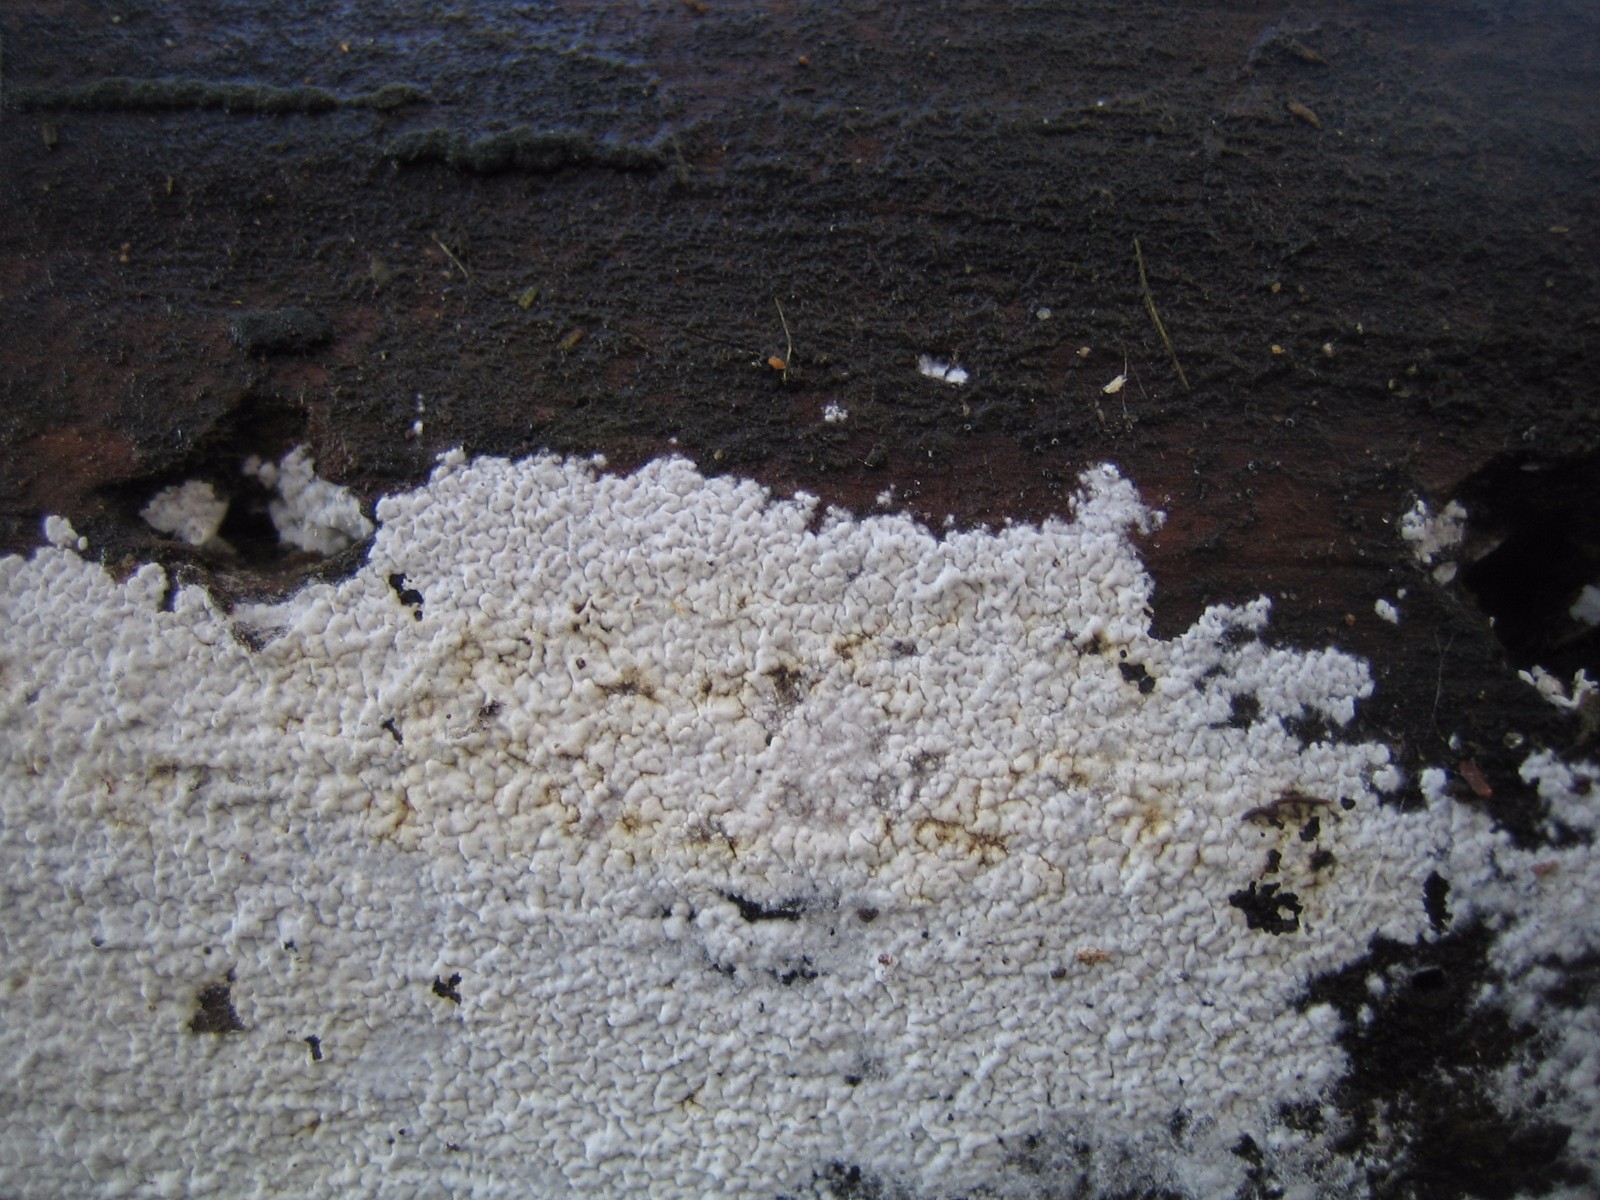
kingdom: Fungi
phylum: Basidiomycota
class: Agaricomycetes
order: Corticiales
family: Corticiaceae
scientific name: Corticiaceae
